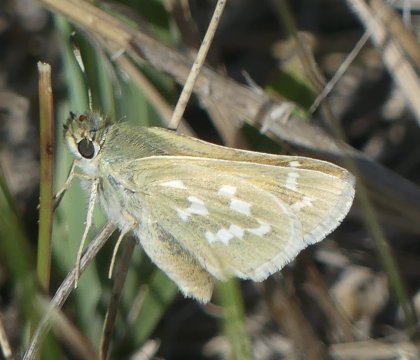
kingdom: Animalia
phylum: Arthropoda
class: Insecta
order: Lepidoptera
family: Hesperiidae
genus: Hesperia
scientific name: Hesperia comma
